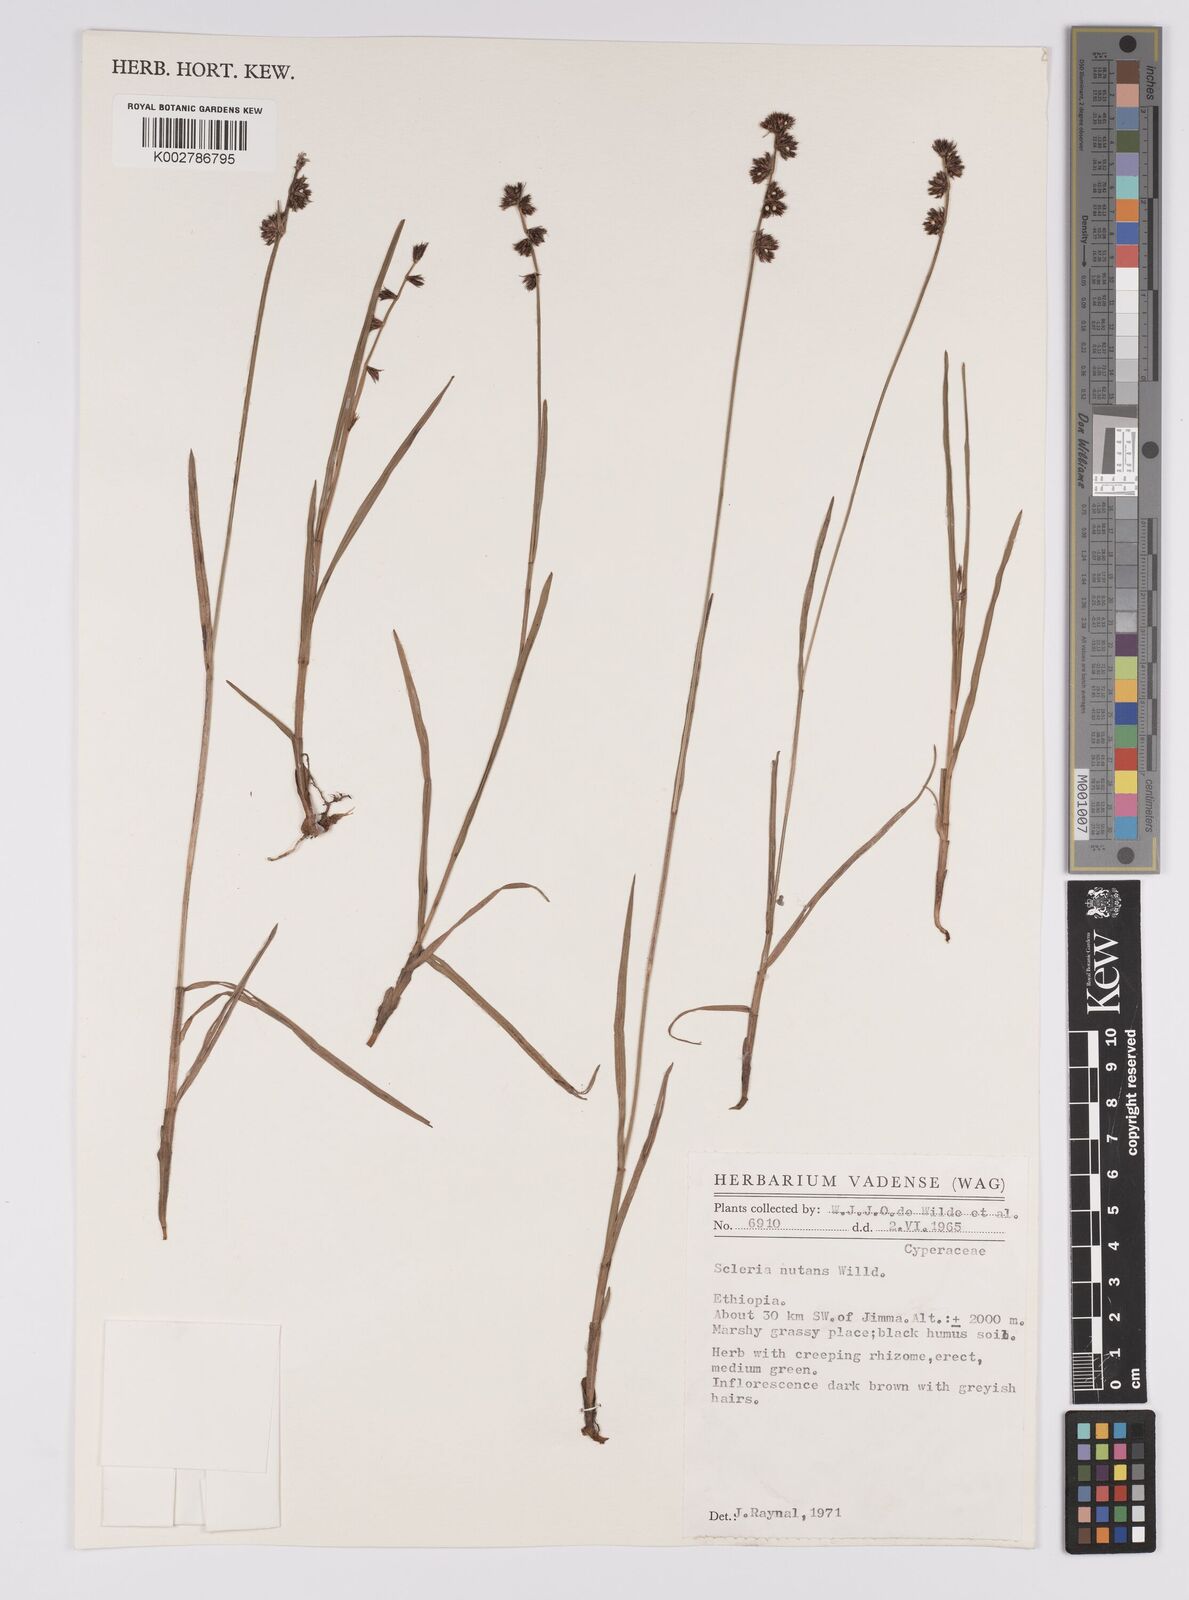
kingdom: Plantae
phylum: Tracheophyta
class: Liliopsida
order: Poales
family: Cyperaceae
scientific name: Cyperaceae
